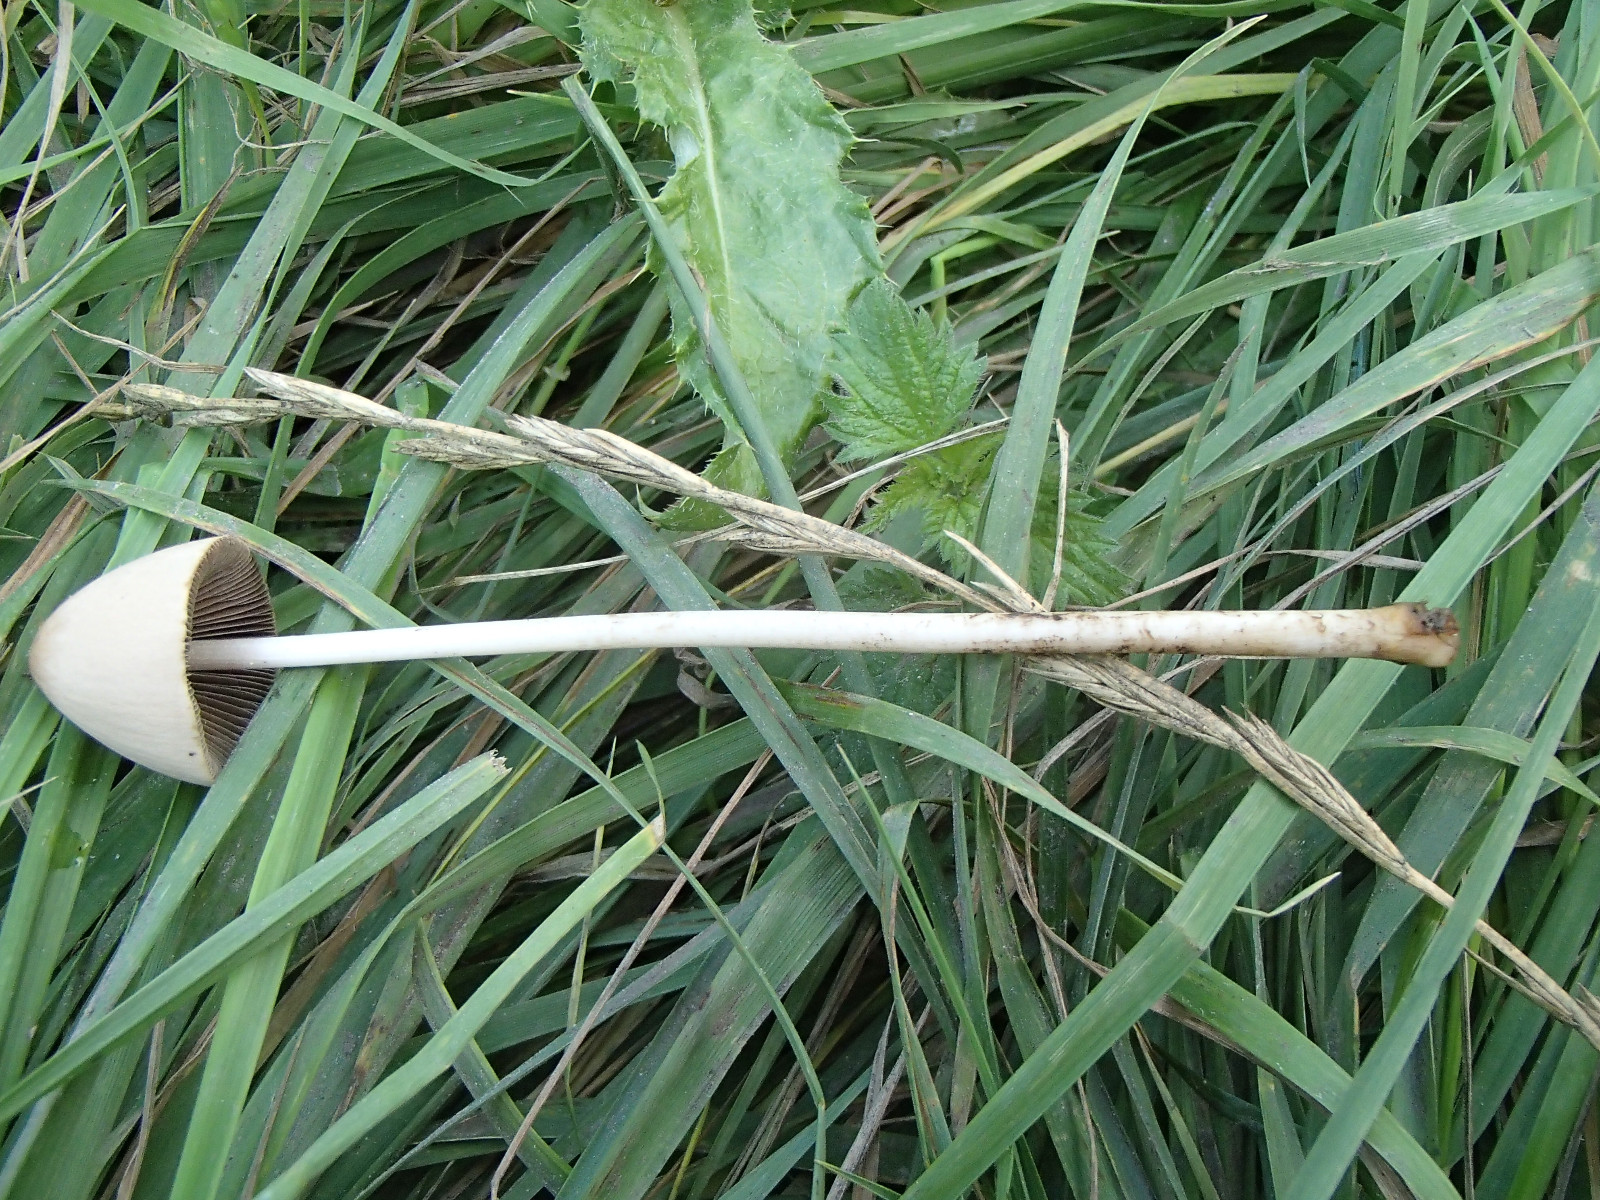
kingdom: Fungi
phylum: Basidiomycota
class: Agaricomycetes
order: Agaricales
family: Psathyrellaceae
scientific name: Psathyrellaceae
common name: mørkhatfamilien
